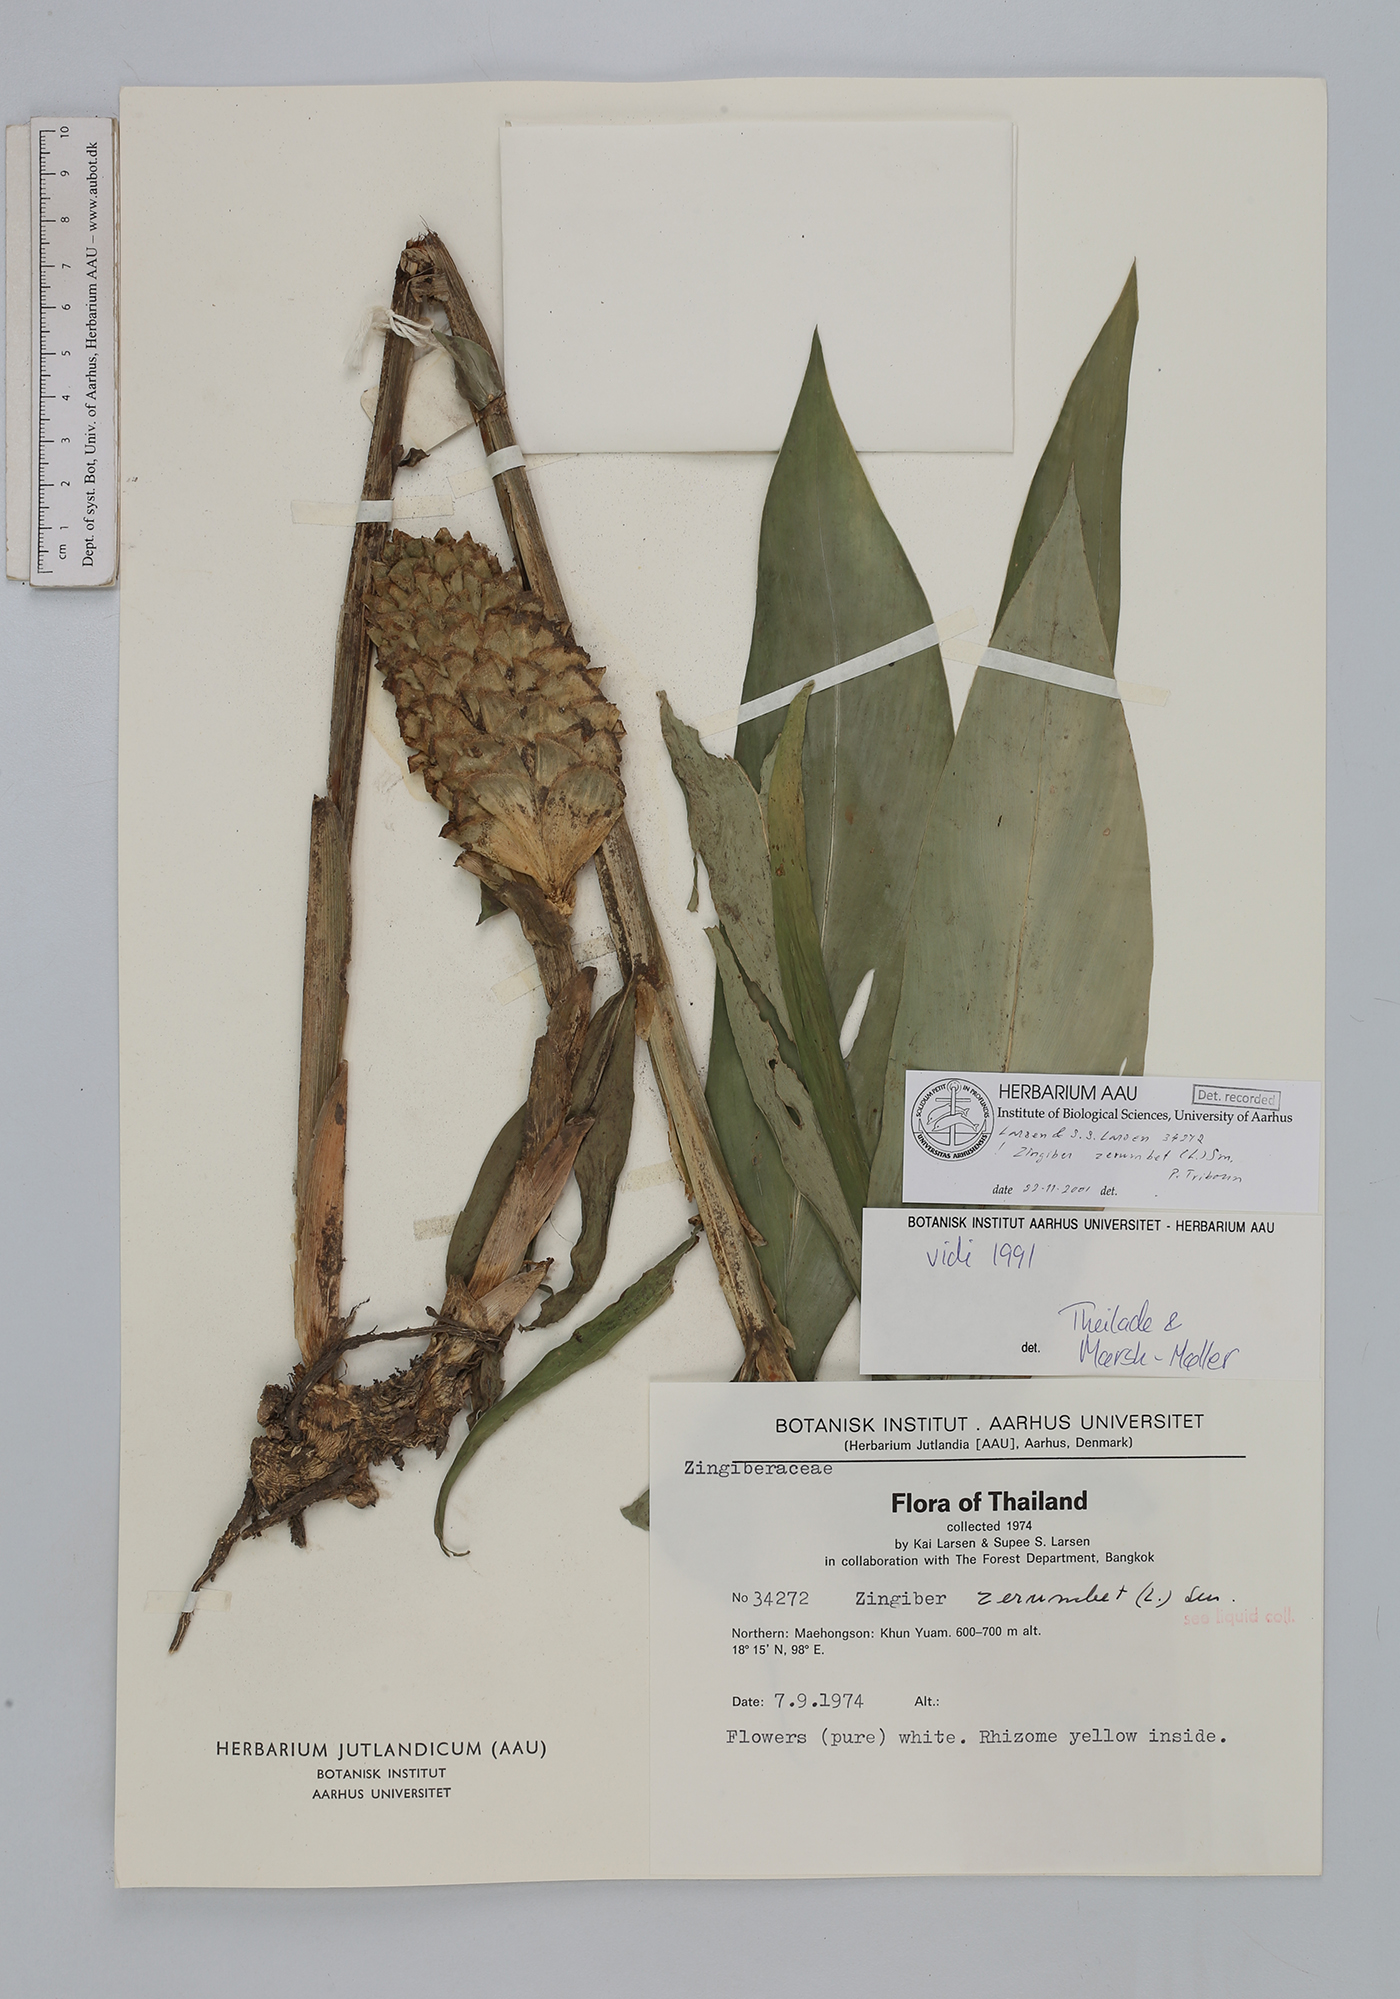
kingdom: Plantae
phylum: Tracheophyta
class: Liliopsida
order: Zingiberales
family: Zingiberaceae
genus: Zingiber
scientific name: Zingiber zerumbet
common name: Bitter ginger
